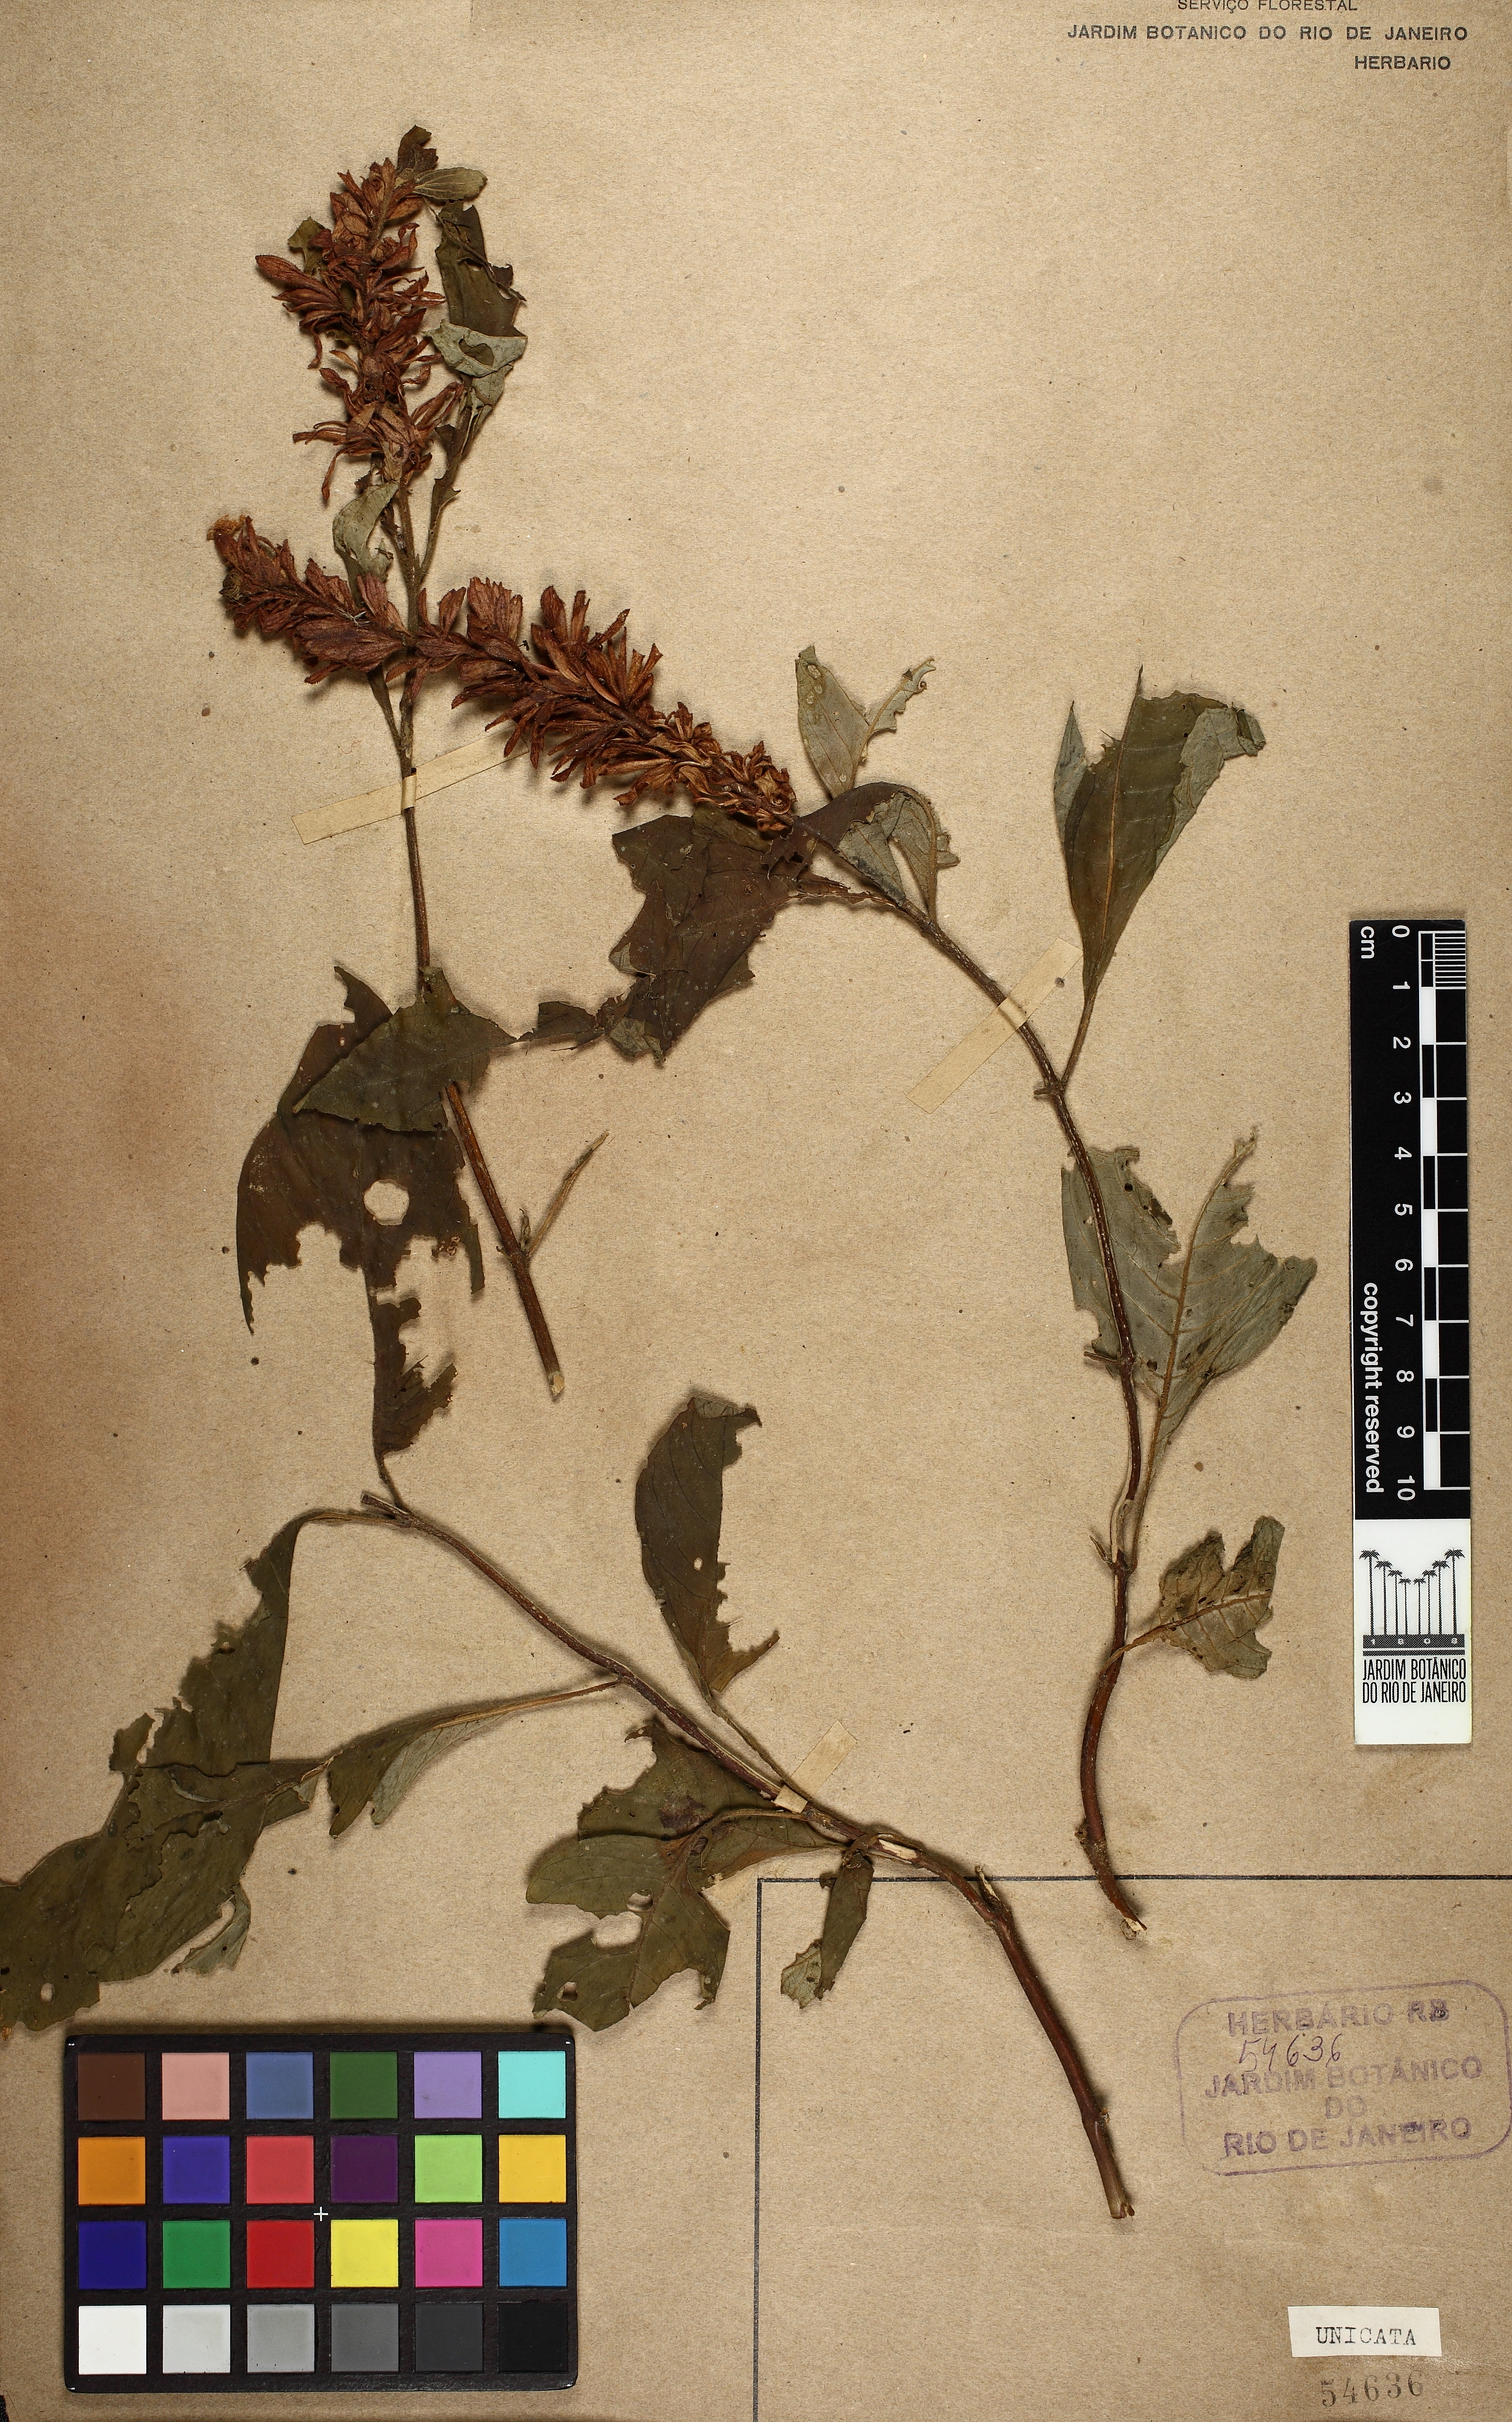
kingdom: Plantae
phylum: Tracheophyta
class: Magnoliopsida
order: Lamiales
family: Acanthaceae
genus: Staurogyne
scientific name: Staurogyne itatiaiae
